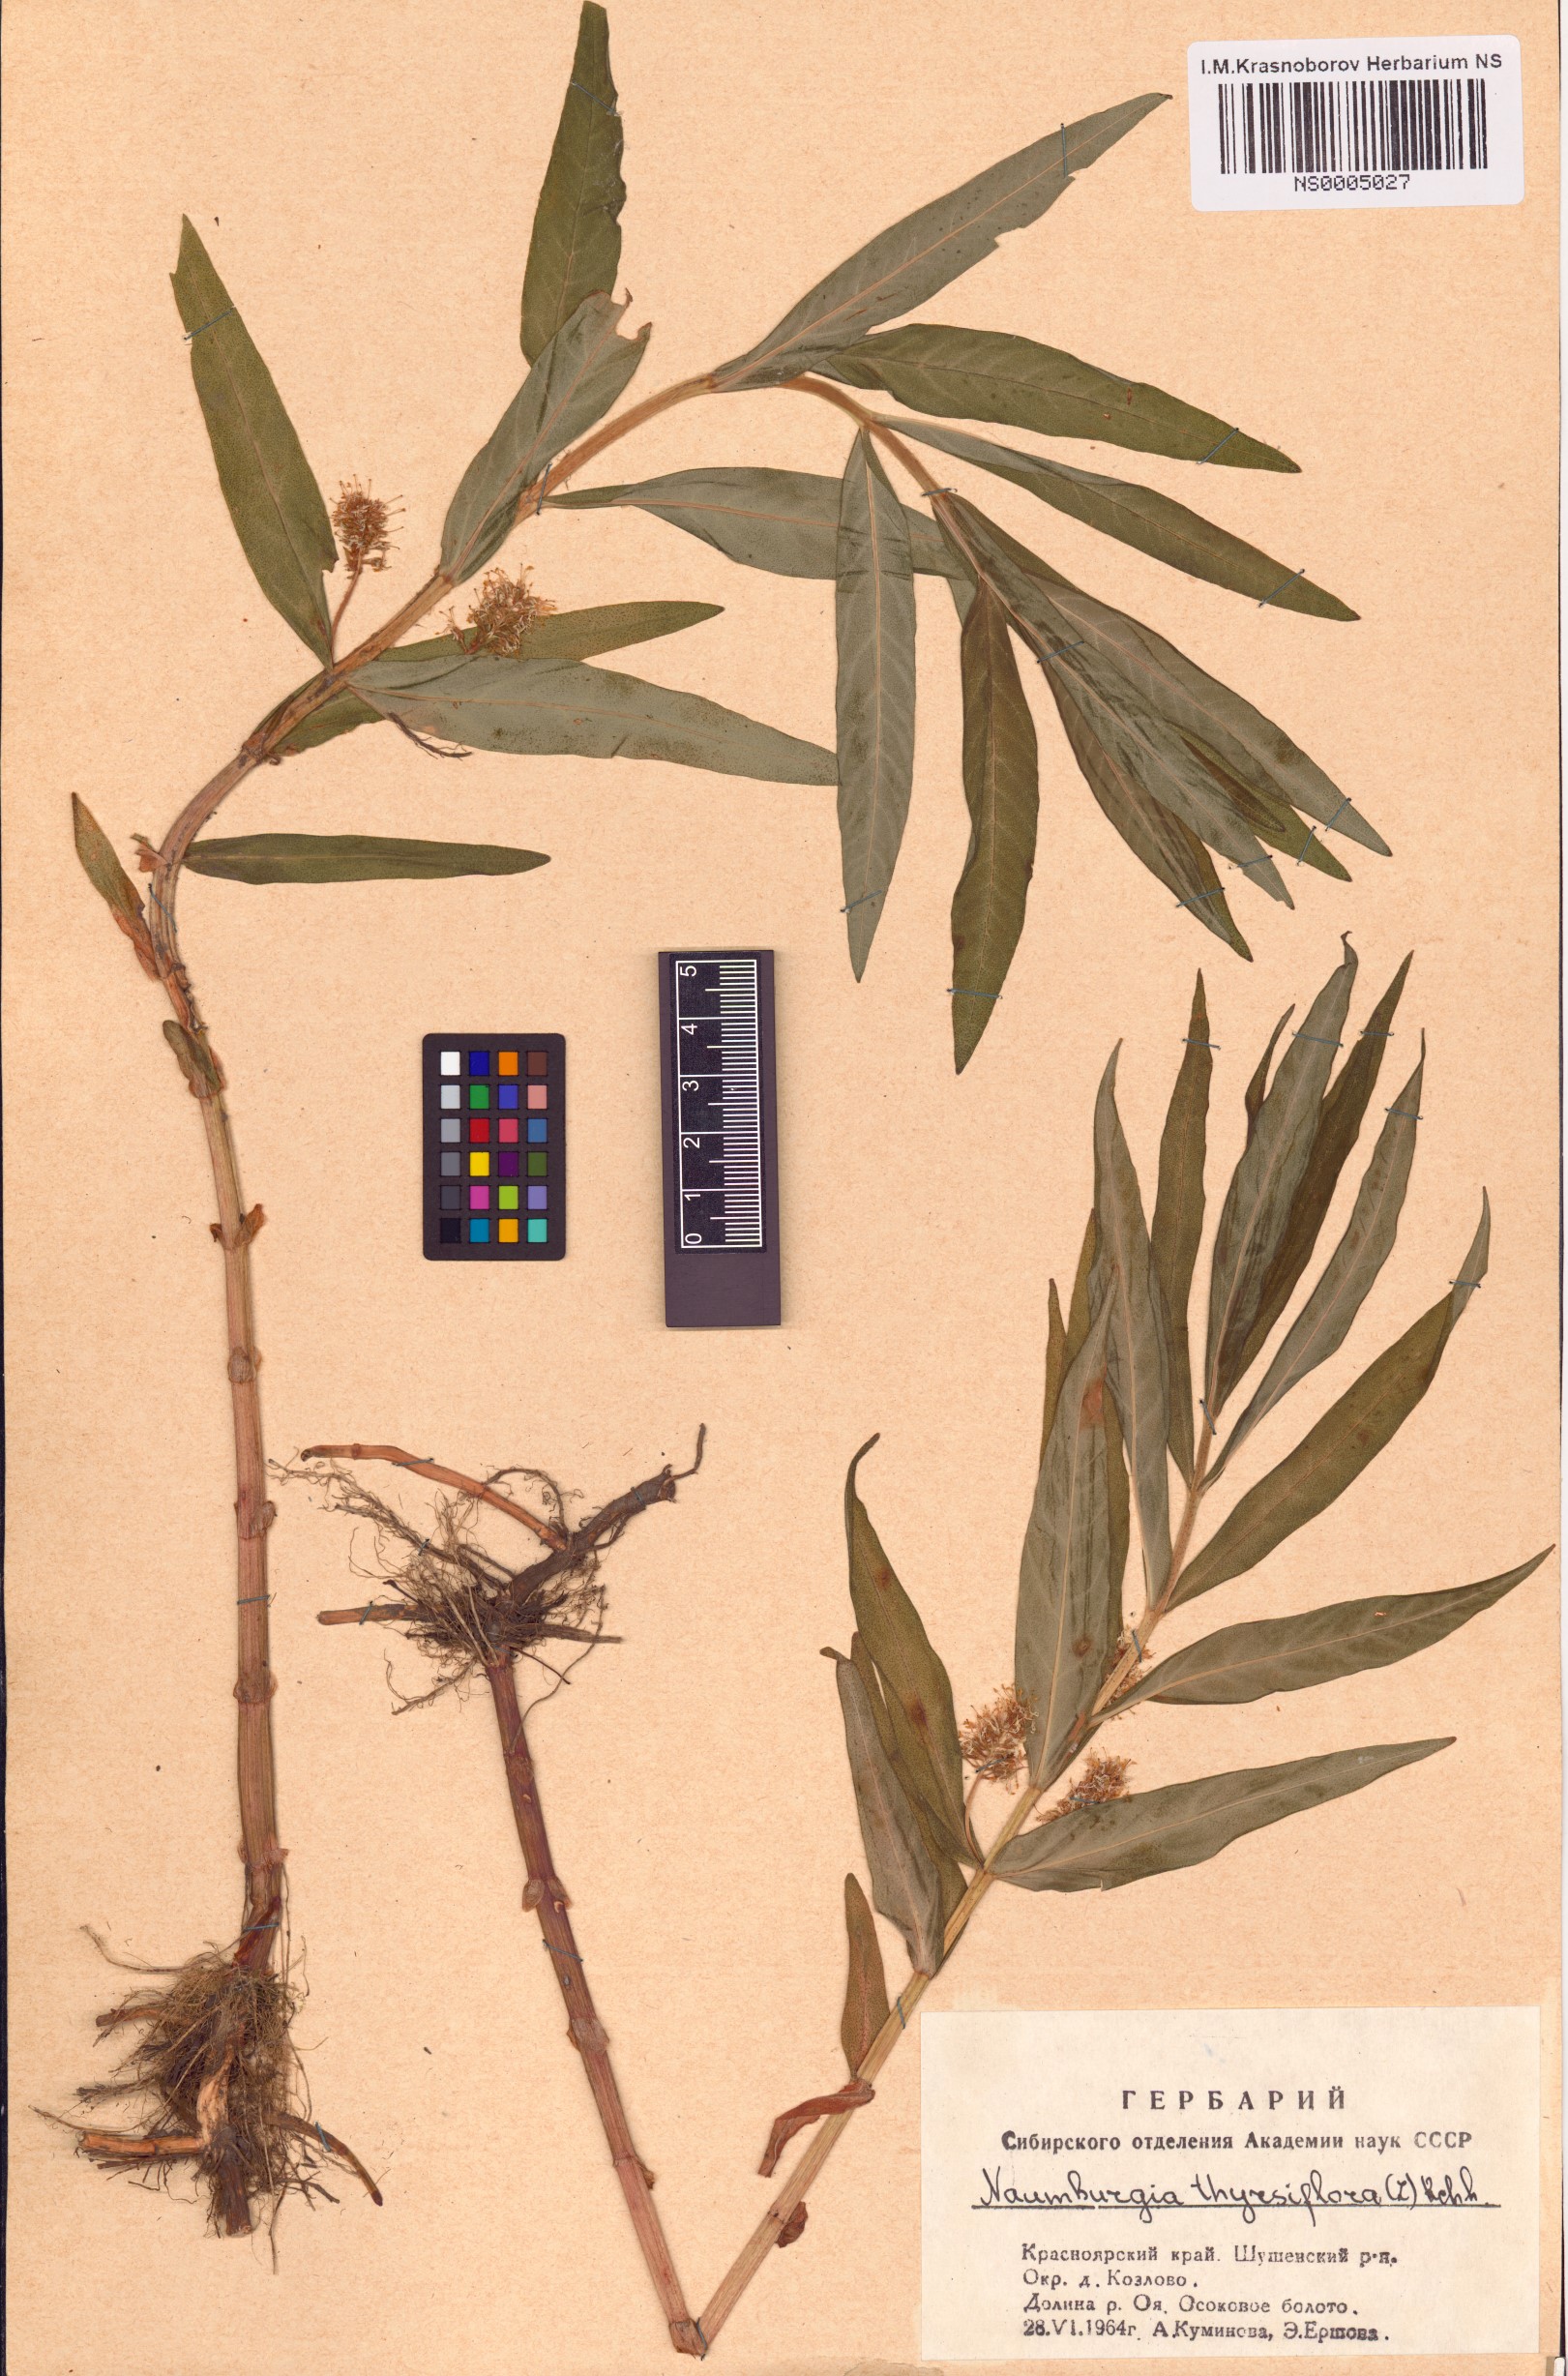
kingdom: Plantae
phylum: Tracheophyta
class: Magnoliopsida
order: Ericales
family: Primulaceae
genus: Lysimachia
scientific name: Lysimachia thyrsiflora
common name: Tufted loosestrife
